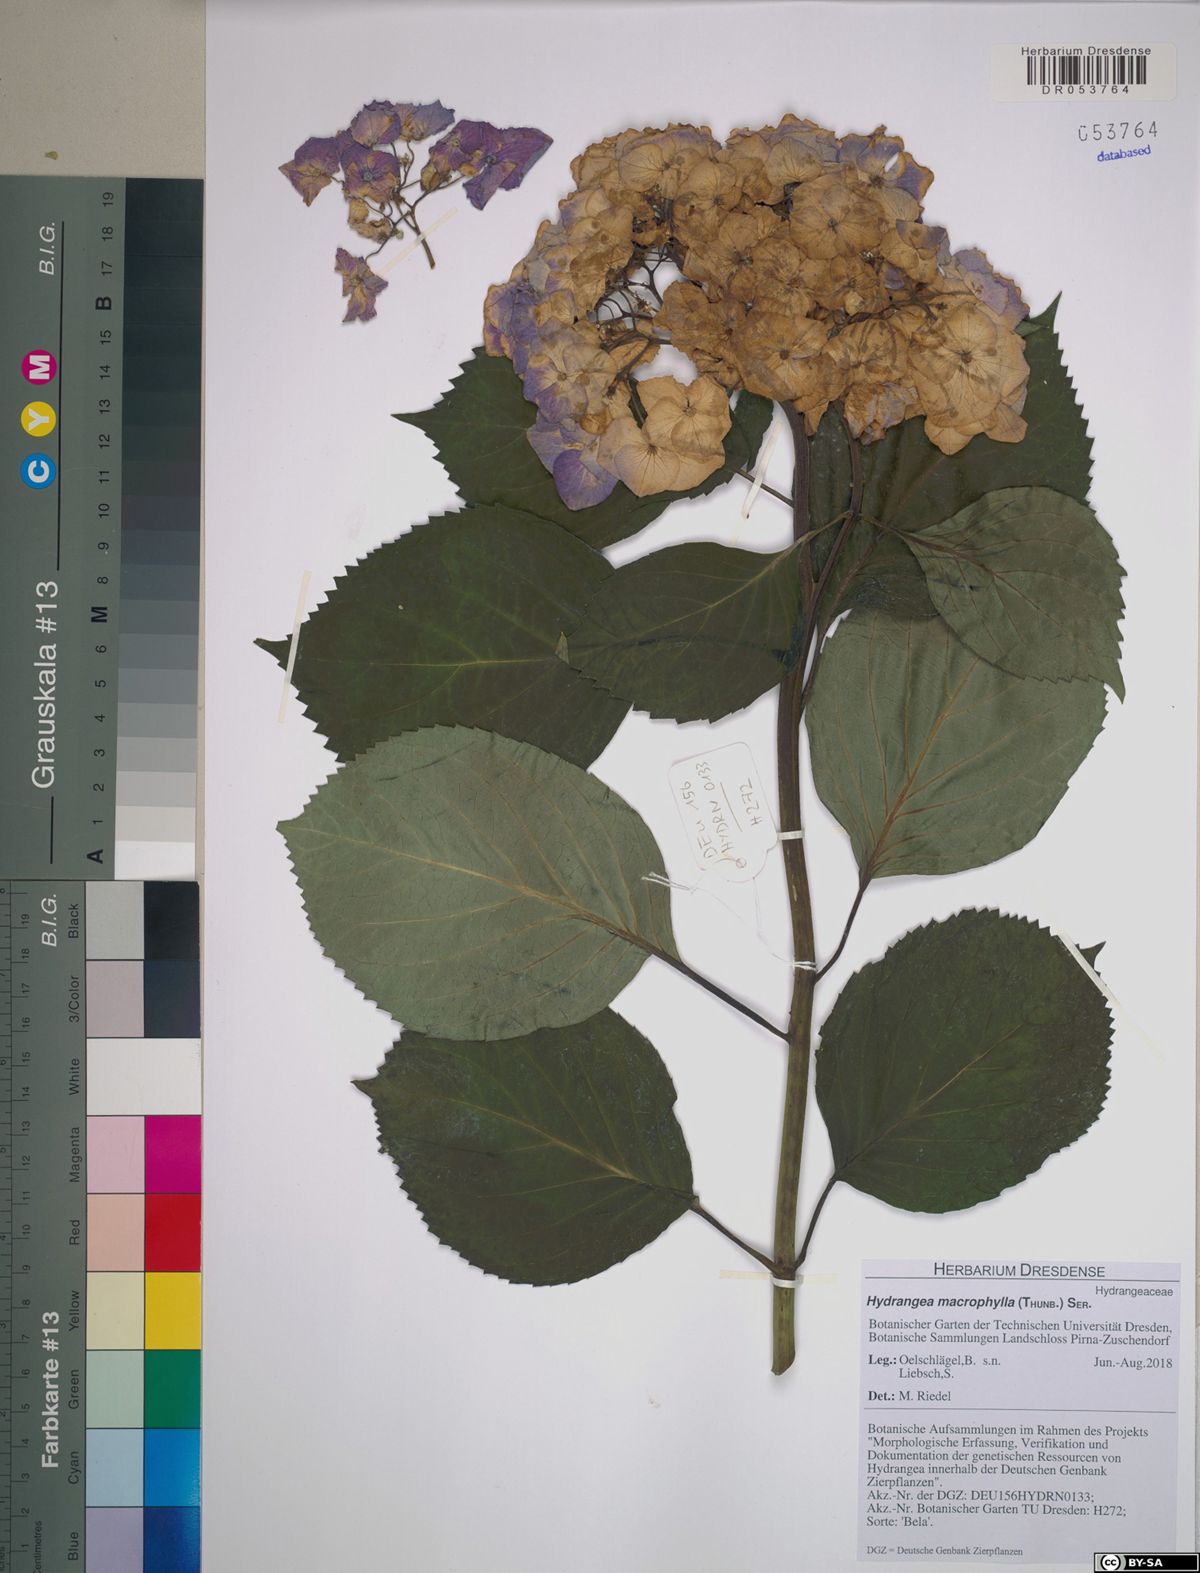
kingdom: Plantae
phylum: Tracheophyta
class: Magnoliopsida
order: Cornales
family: Hydrangeaceae
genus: Hydrangea
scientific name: Hydrangea macrophylla
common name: Hydrangea
